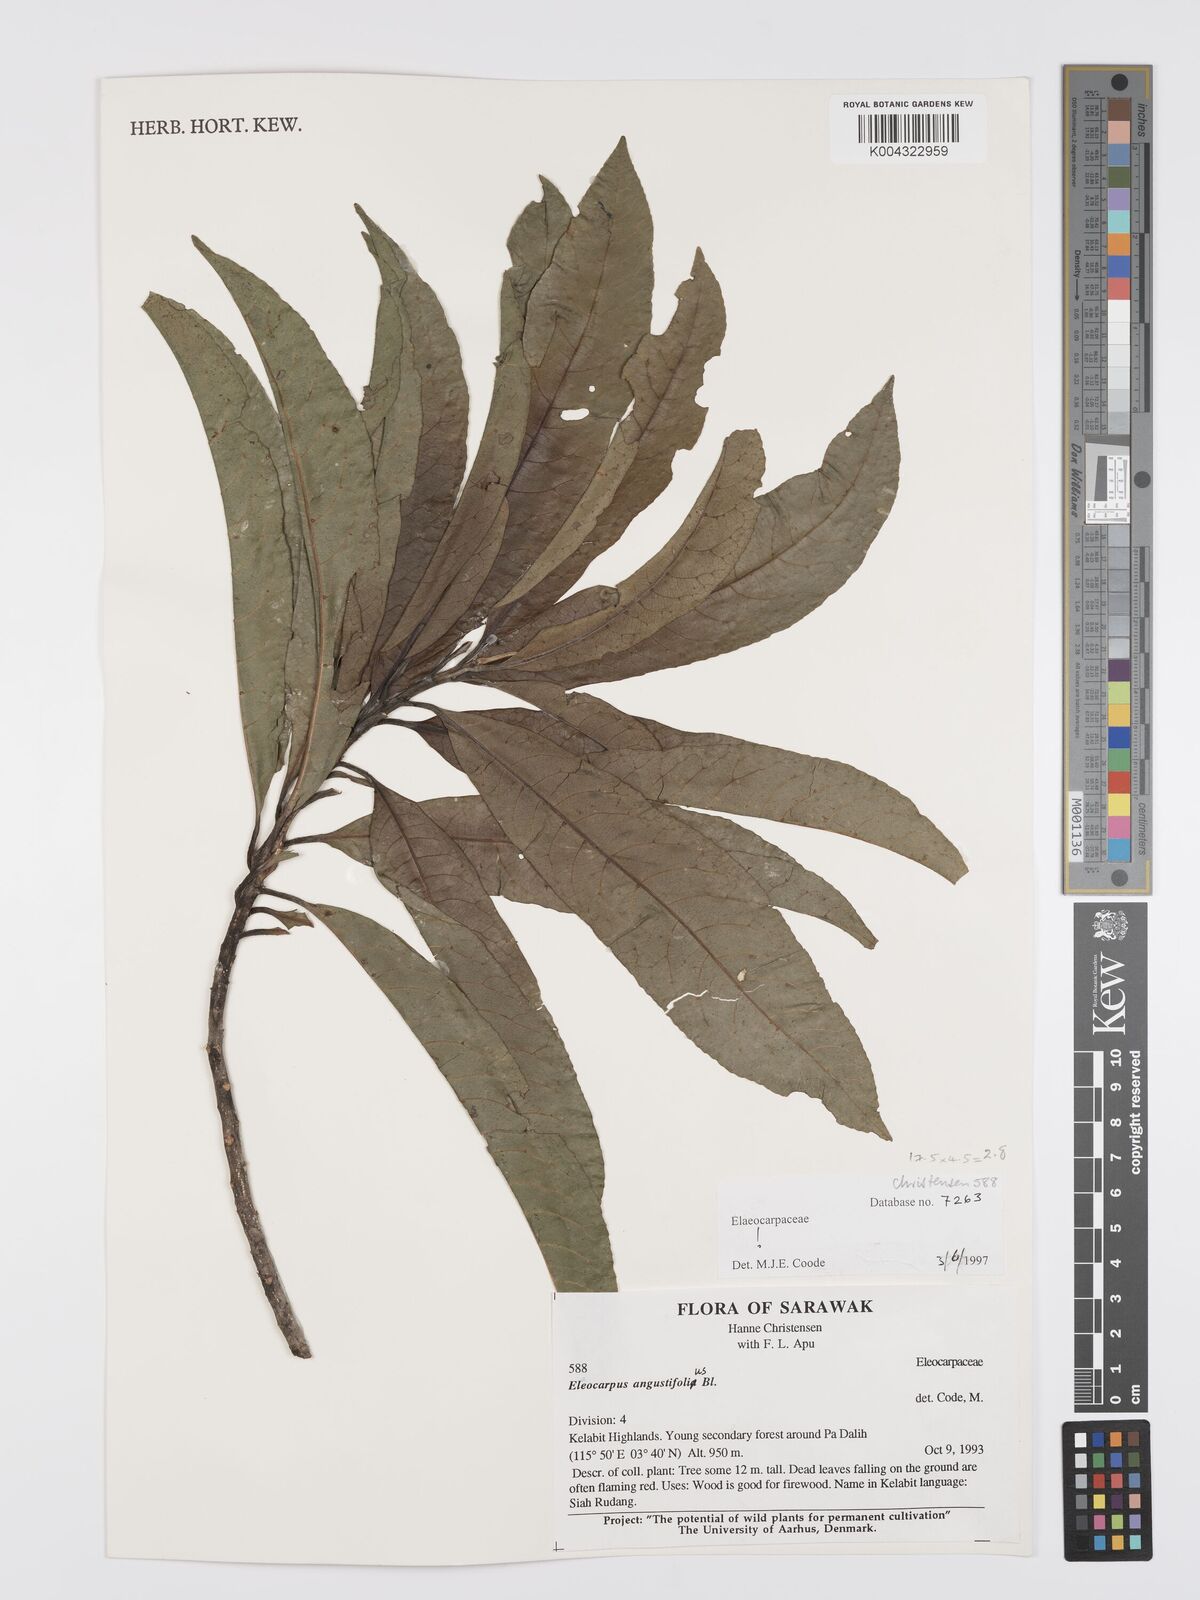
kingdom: Plantae
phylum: Tracheophyta
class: Magnoliopsida
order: Oxalidales
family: Elaeocarpaceae
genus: Elaeocarpus
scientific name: Elaeocarpus angustifolius
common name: Blue marble tree
